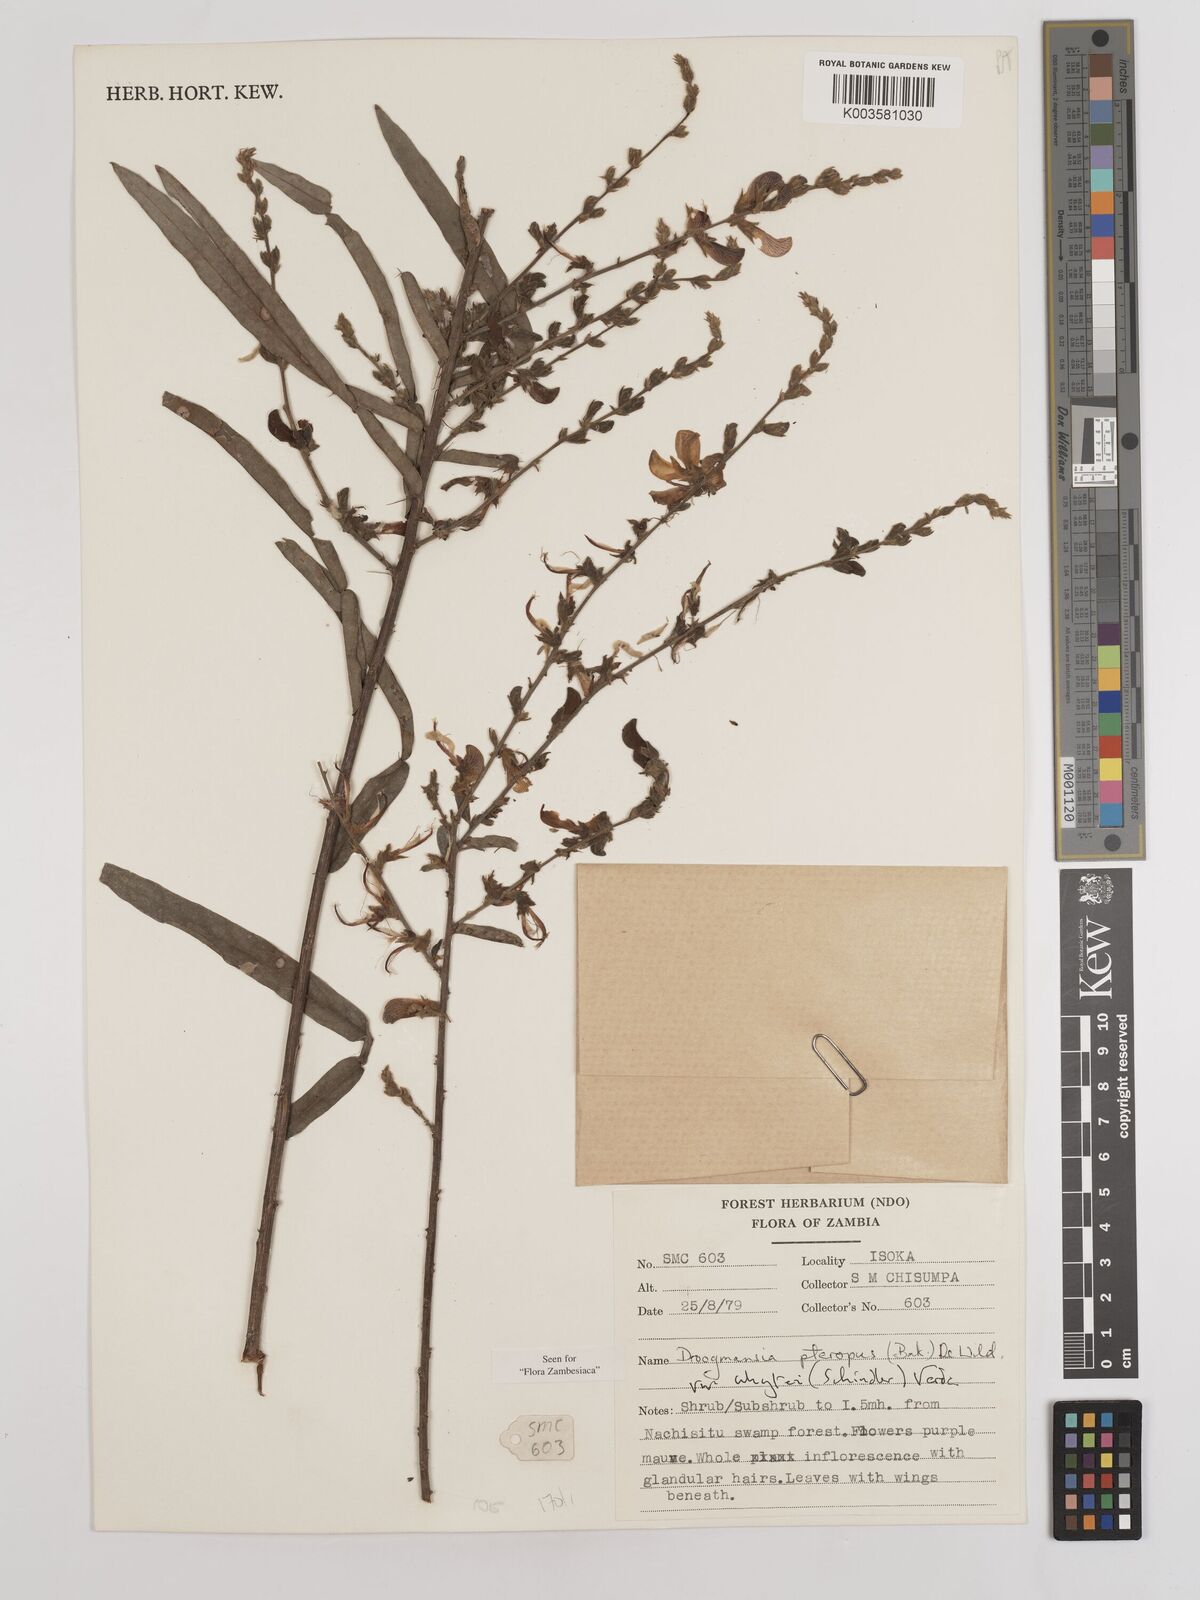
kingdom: Plantae
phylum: Tracheophyta
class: Magnoliopsida
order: Fabales
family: Fabaceae
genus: Droogmansia
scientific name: Droogmansia pteropus
